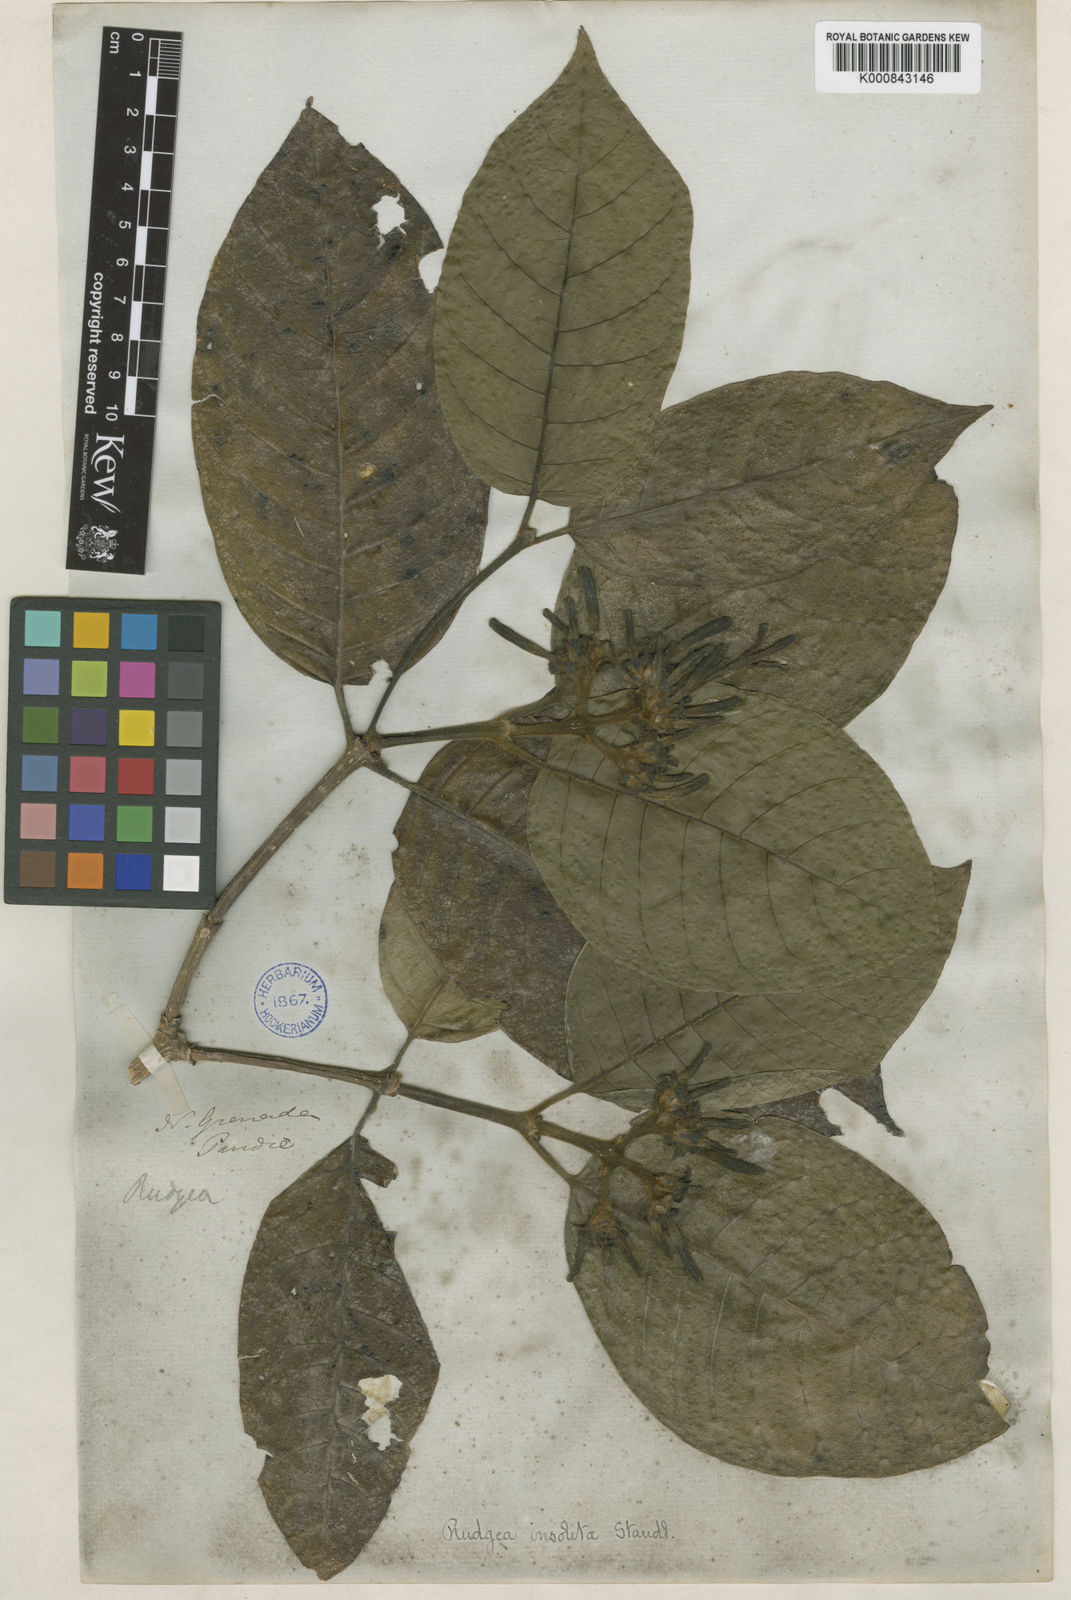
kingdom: Plantae
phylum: Tracheophyta
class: Magnoliopsida
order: Gentianales
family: Rubiaceae
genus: Coussarea
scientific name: Coussarea insolita
